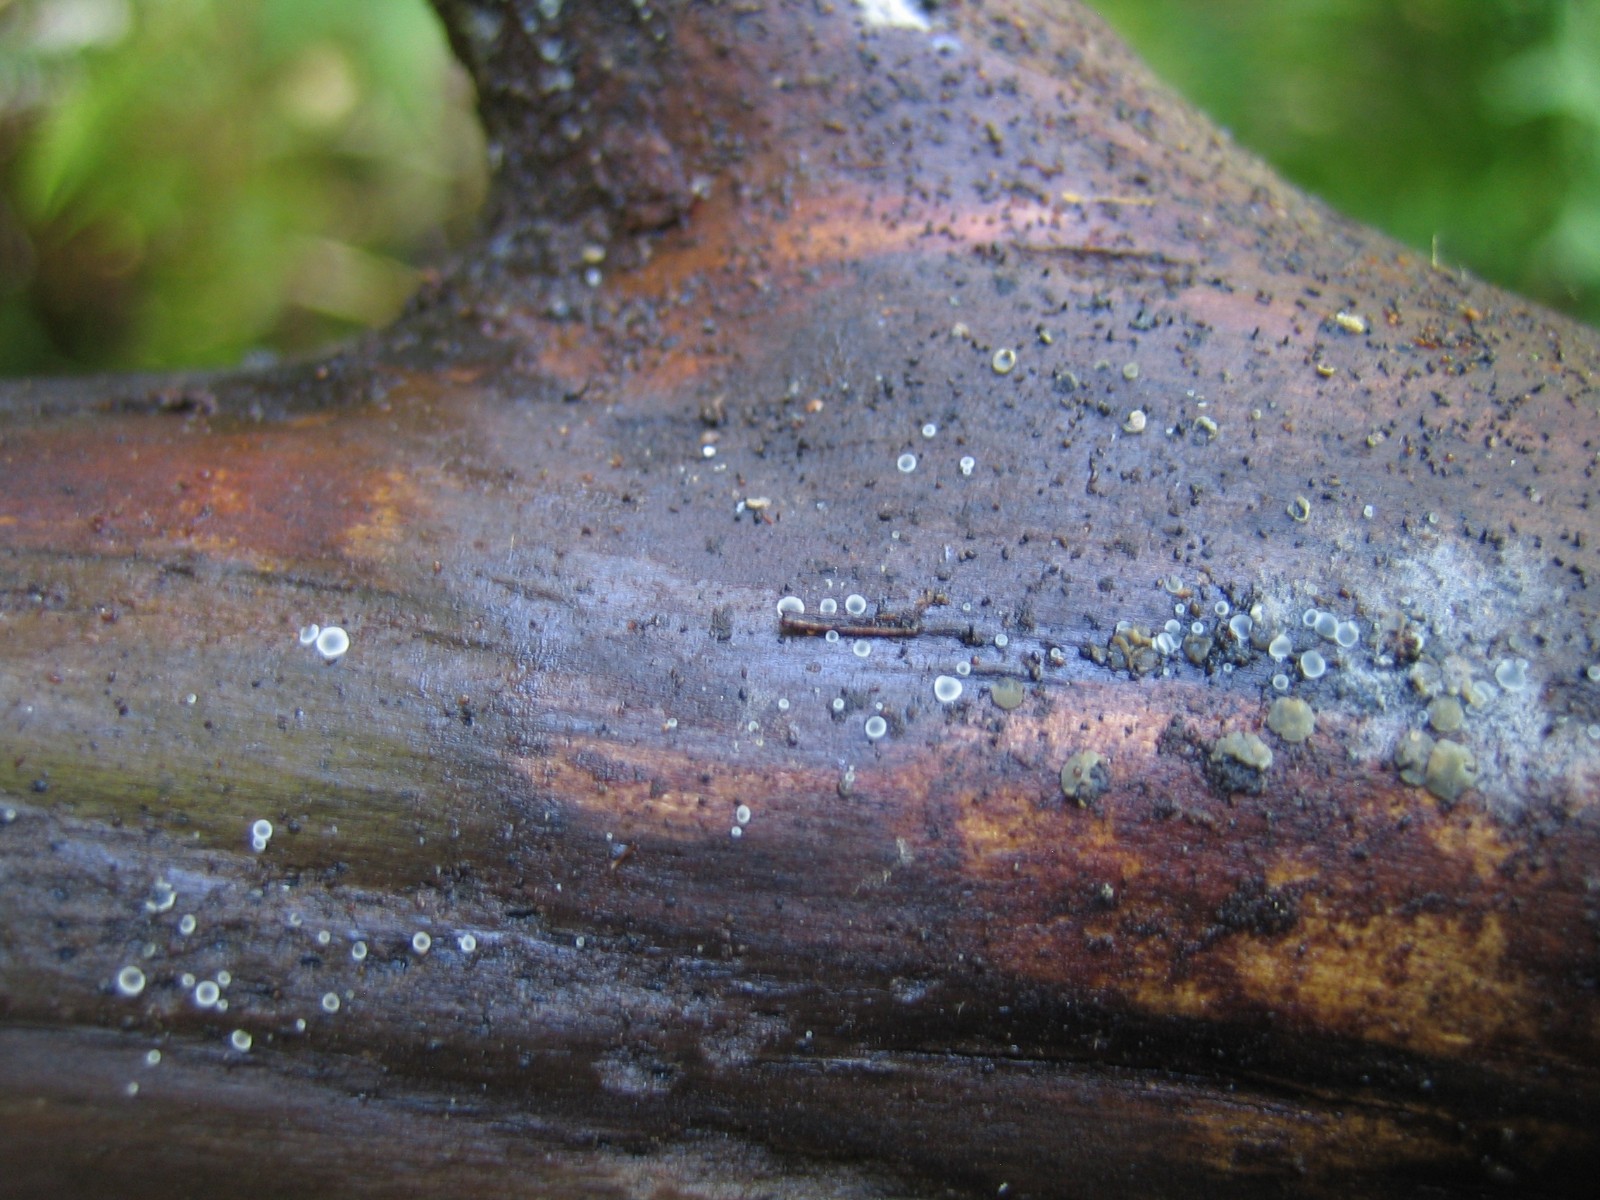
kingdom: Fungi
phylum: Ascomycota
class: Leotiomycetes
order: Helotiales
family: Mollisiaceae
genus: Mollisia
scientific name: Mollisia
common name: gråskive
